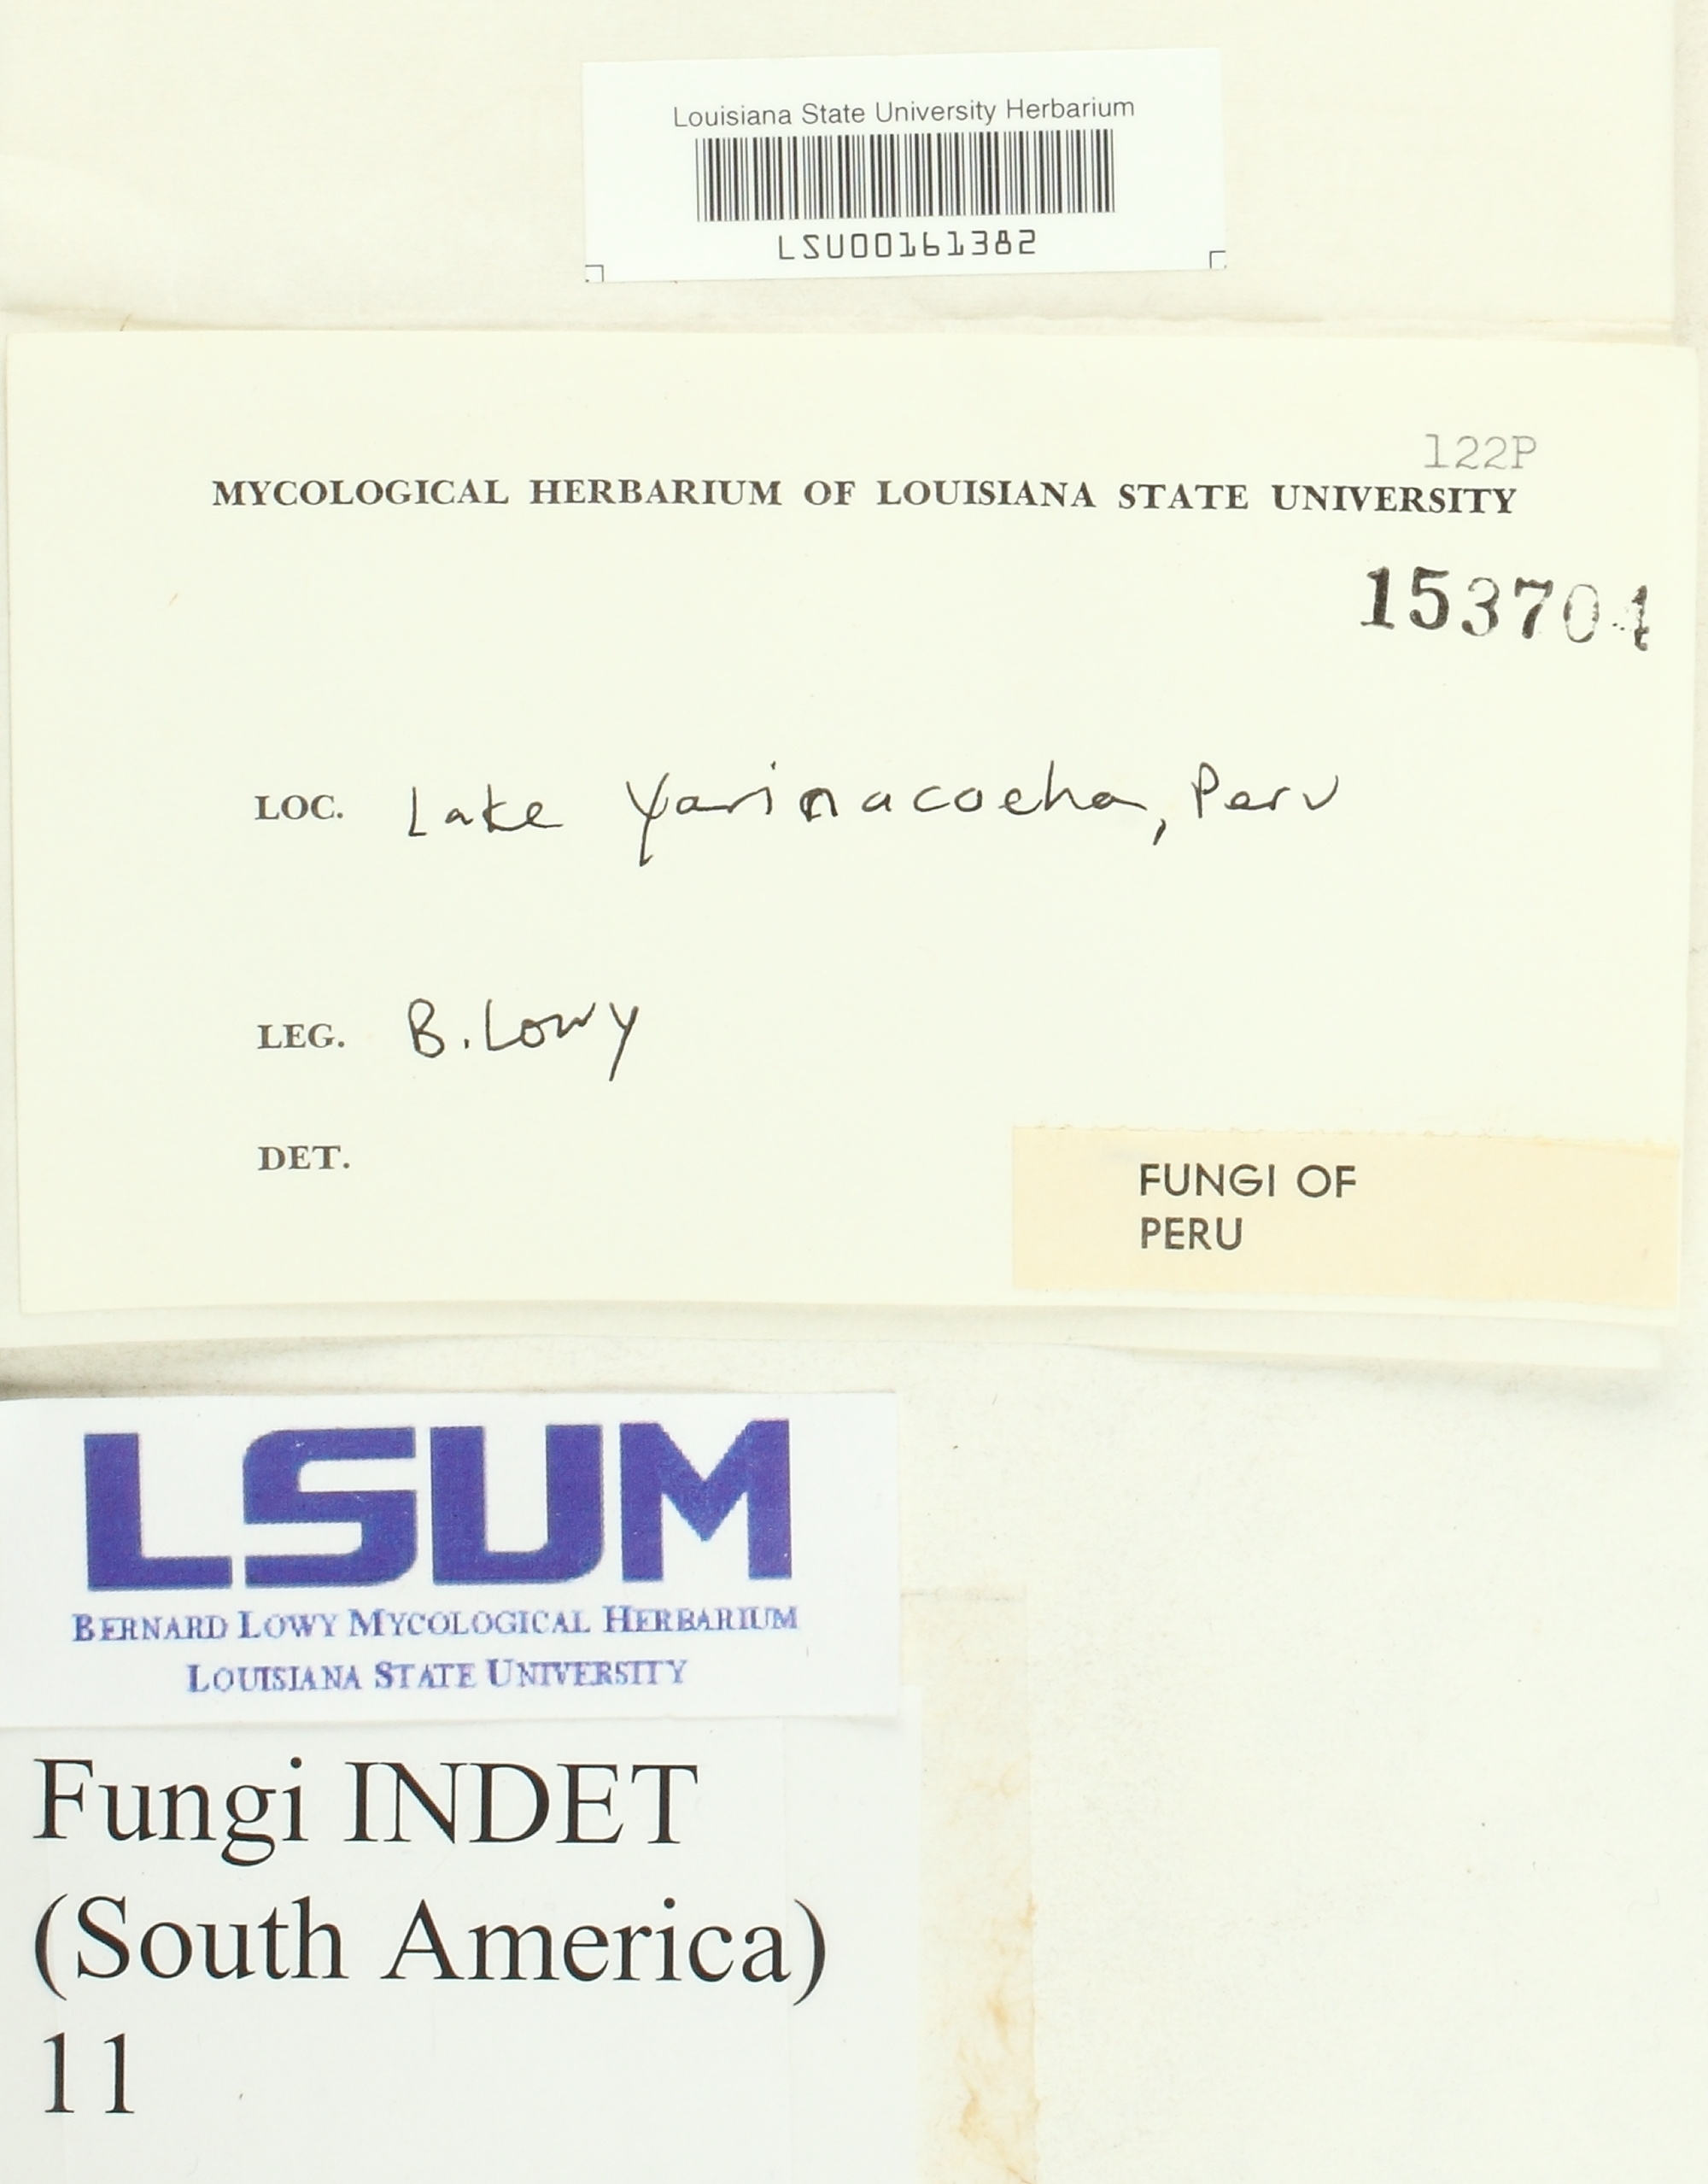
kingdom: Fungi
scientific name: Fungi
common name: Fungi
